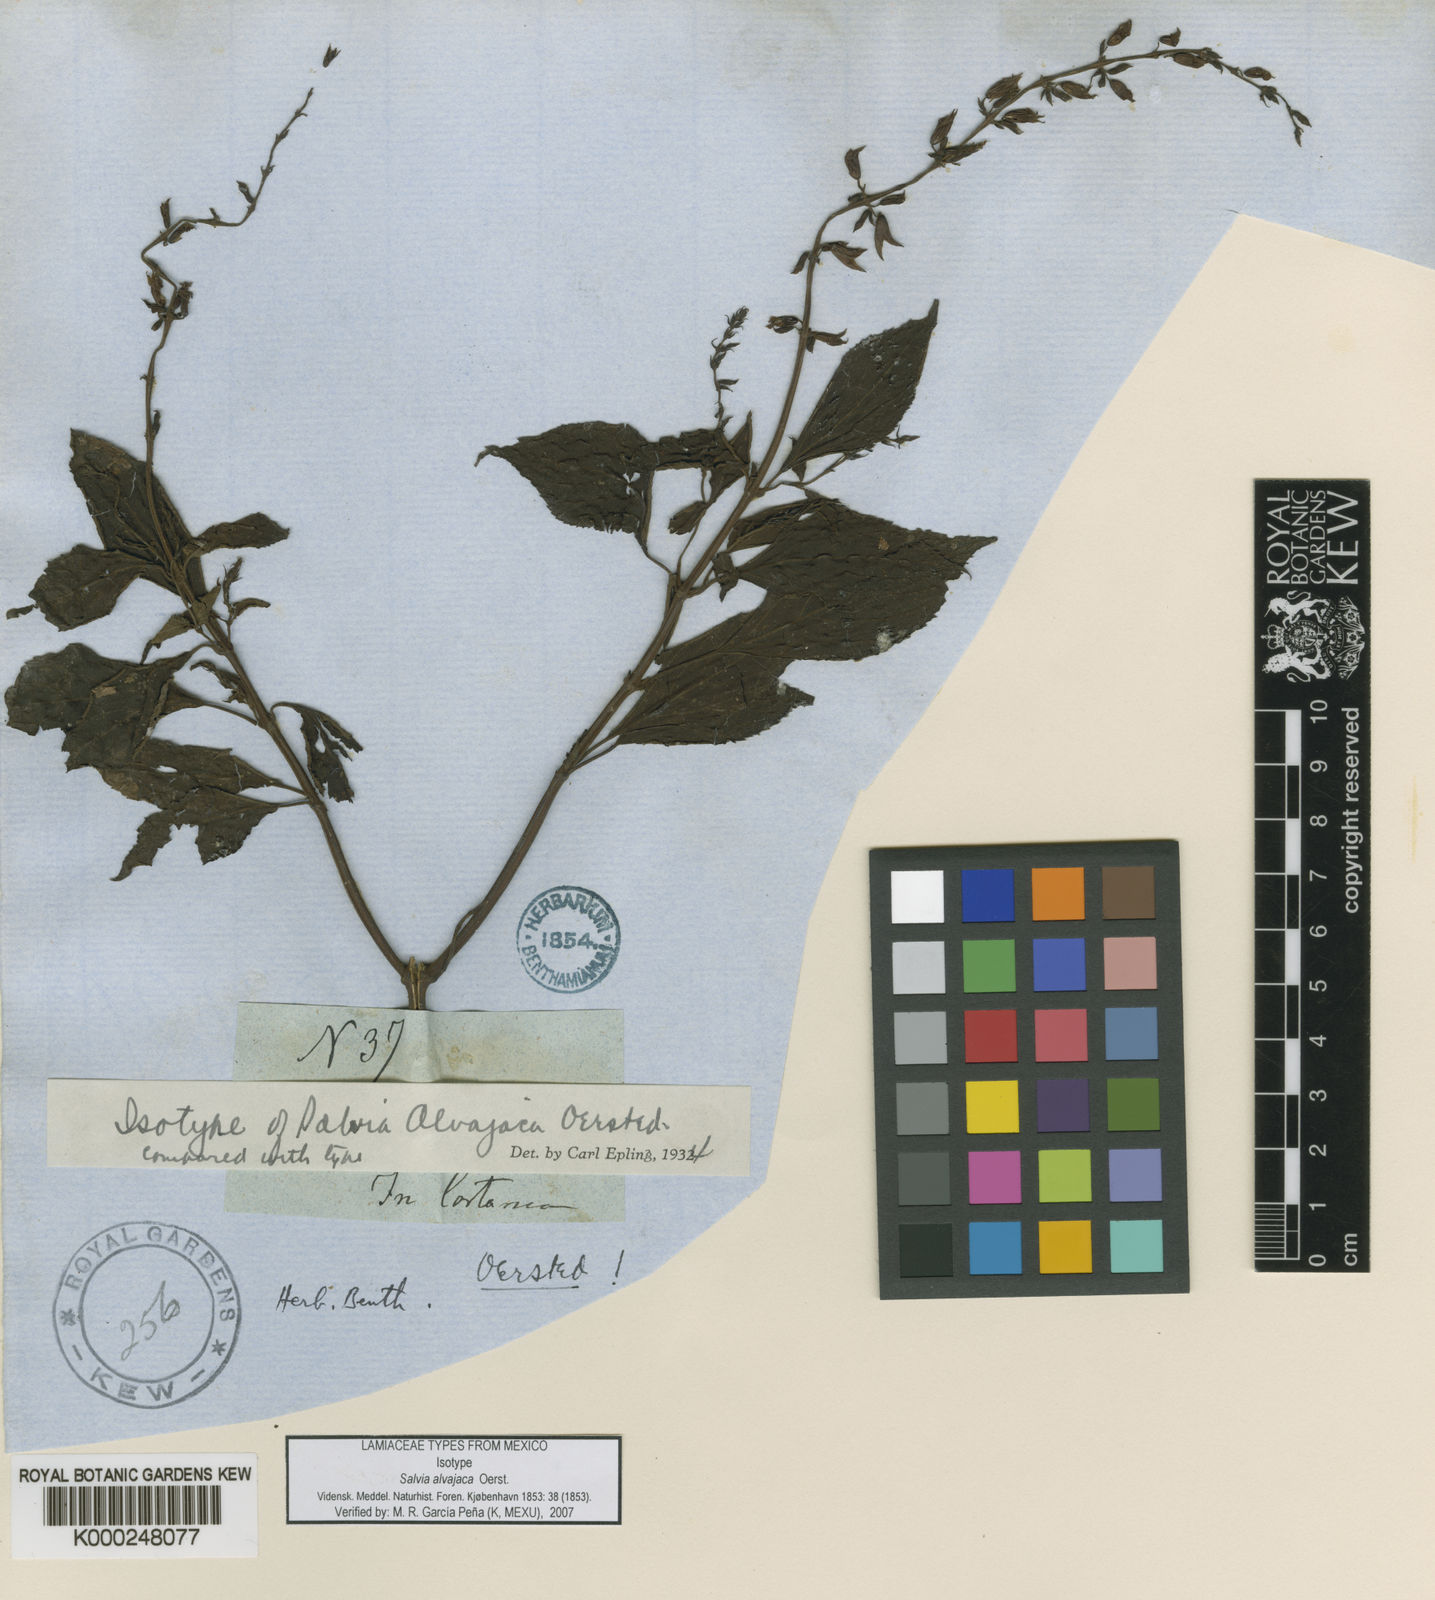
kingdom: Plantae
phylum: Tracheophyta
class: Magnoliopsida
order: Lamiales
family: Lamiaceae
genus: Salvia
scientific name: Salvia alvajaca
